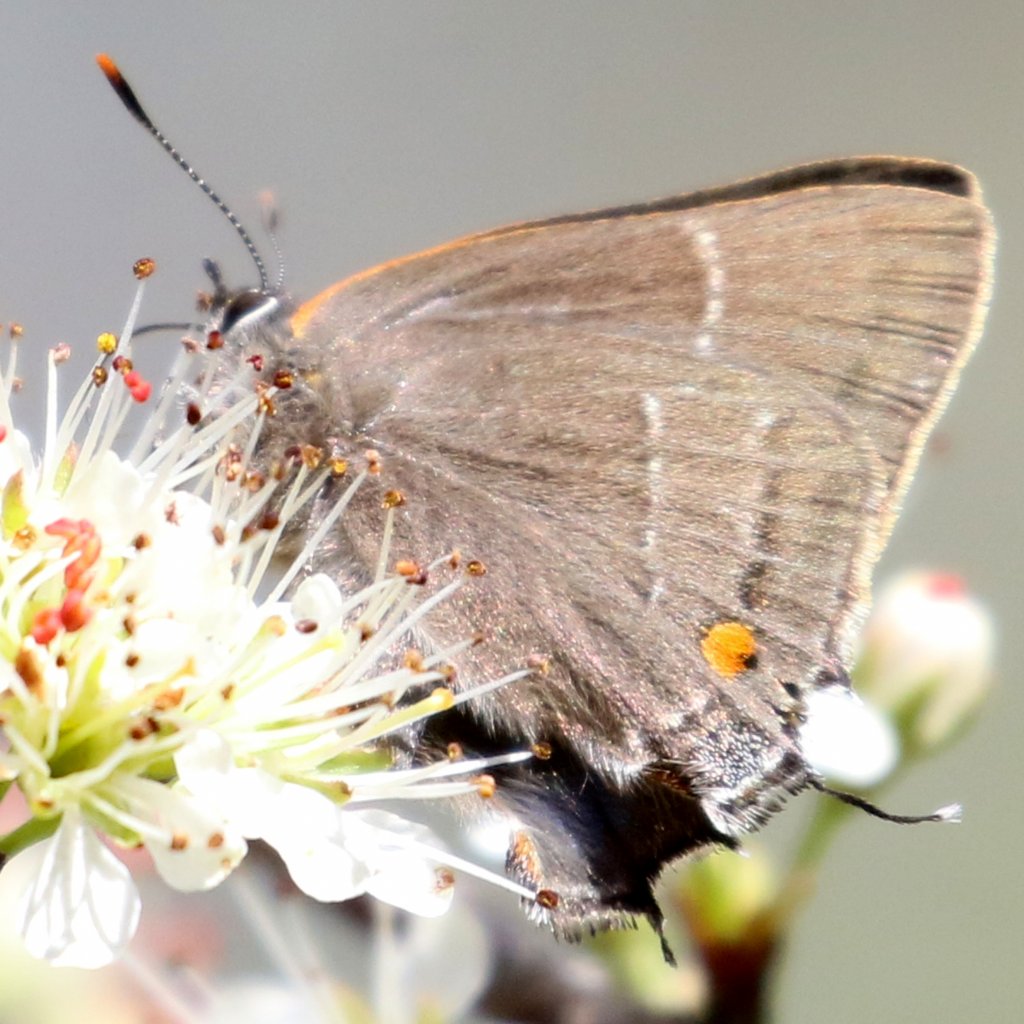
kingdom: Animalia
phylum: Arthropoda
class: Insecta
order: Lepidoptera
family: Lycaenidae
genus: Parrhasius
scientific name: Parrhasius m-album
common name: White-m Hairstreak
